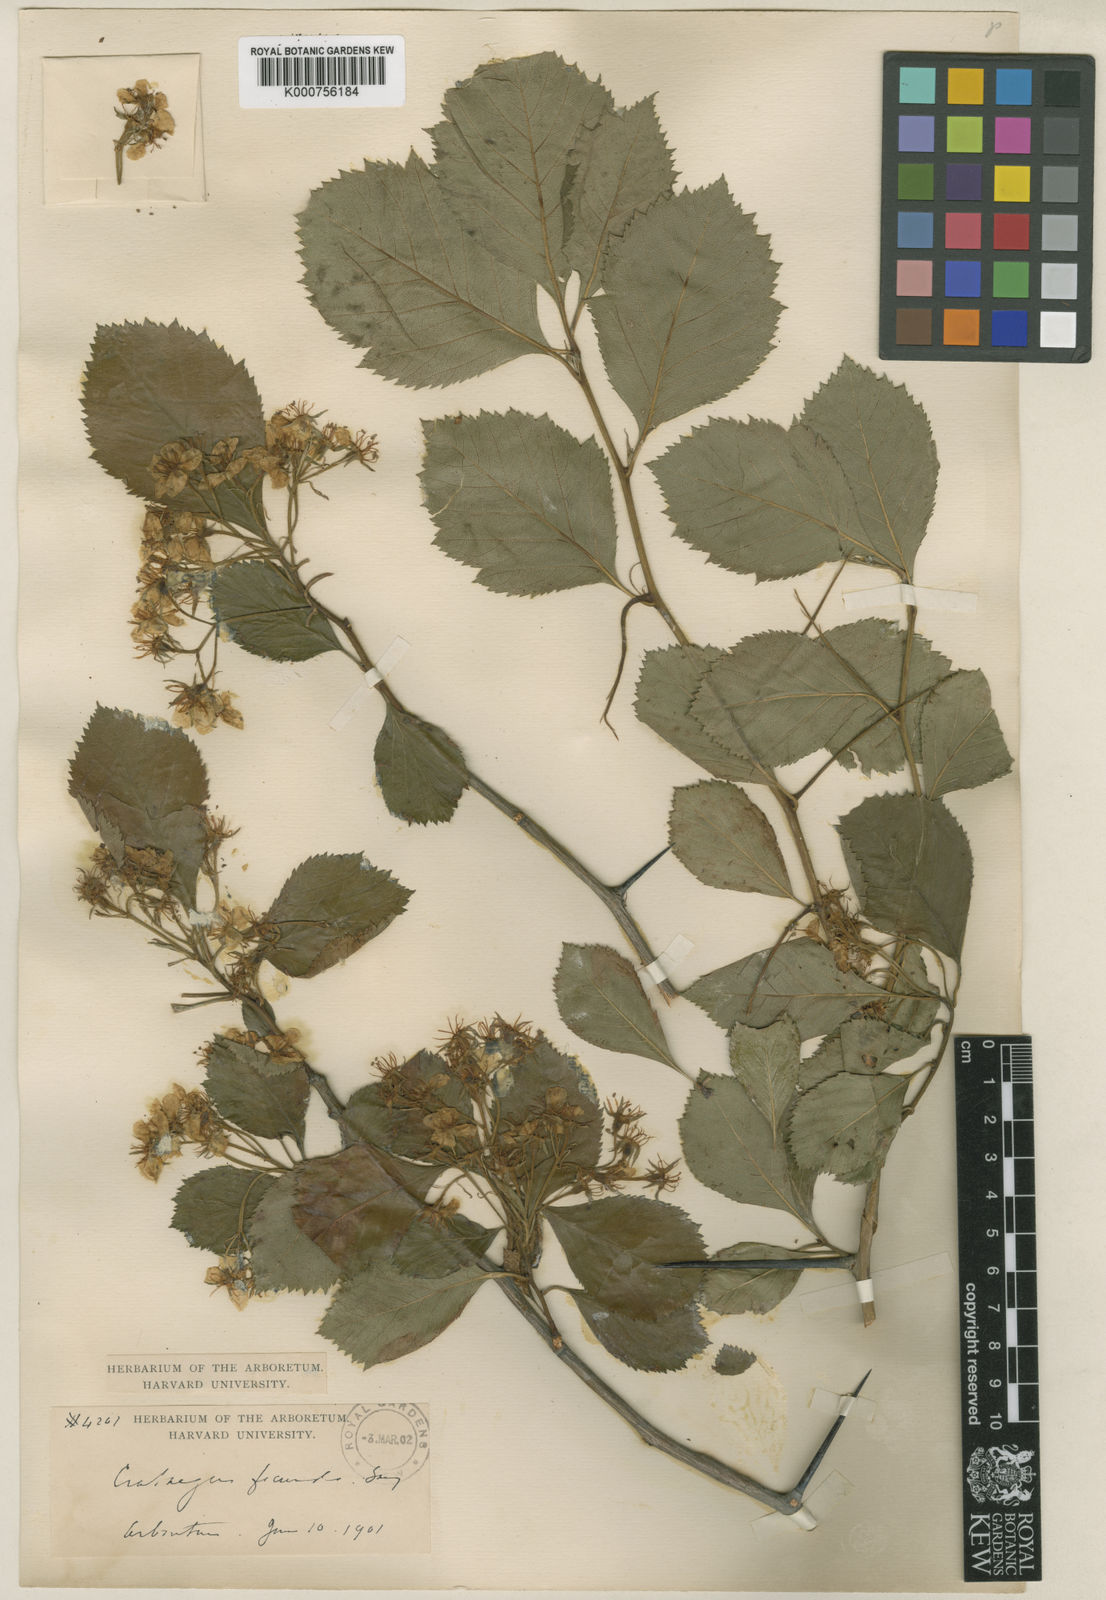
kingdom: Plantae
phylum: Tracheophyta
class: Magnoliopsida
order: Rosales
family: Rosaceae
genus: Crataegus
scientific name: Crataegus fecunda
